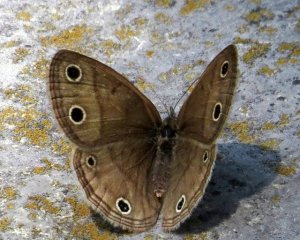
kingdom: Animalia
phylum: Arthropoda
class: Insecta
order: Lepidoptera
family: Nymphalidae
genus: Euptychia
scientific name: Euptychia cymela
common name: Little Wood Satyr
